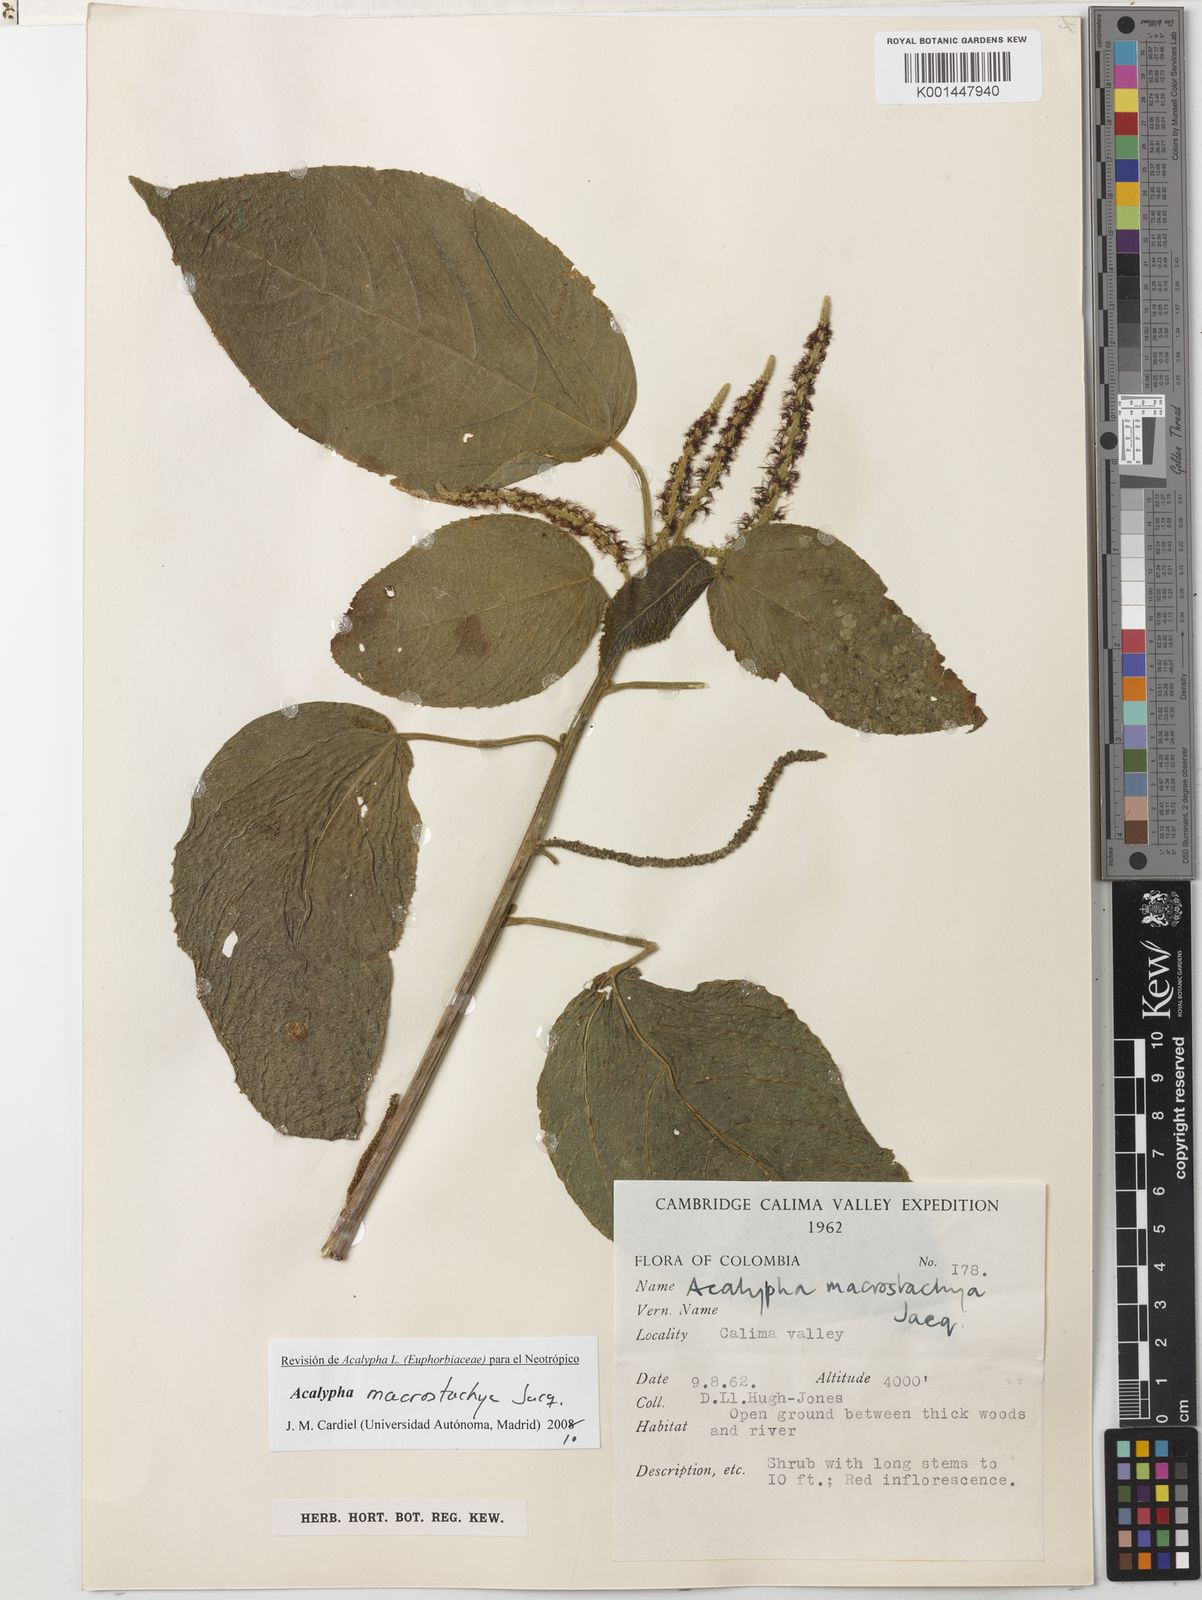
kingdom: Plantae
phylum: Tracheophyta
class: Magnoliopsida
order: Malpighiales
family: Euphorbiaceae
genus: Acalypha
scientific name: Acalypha macrostachya
